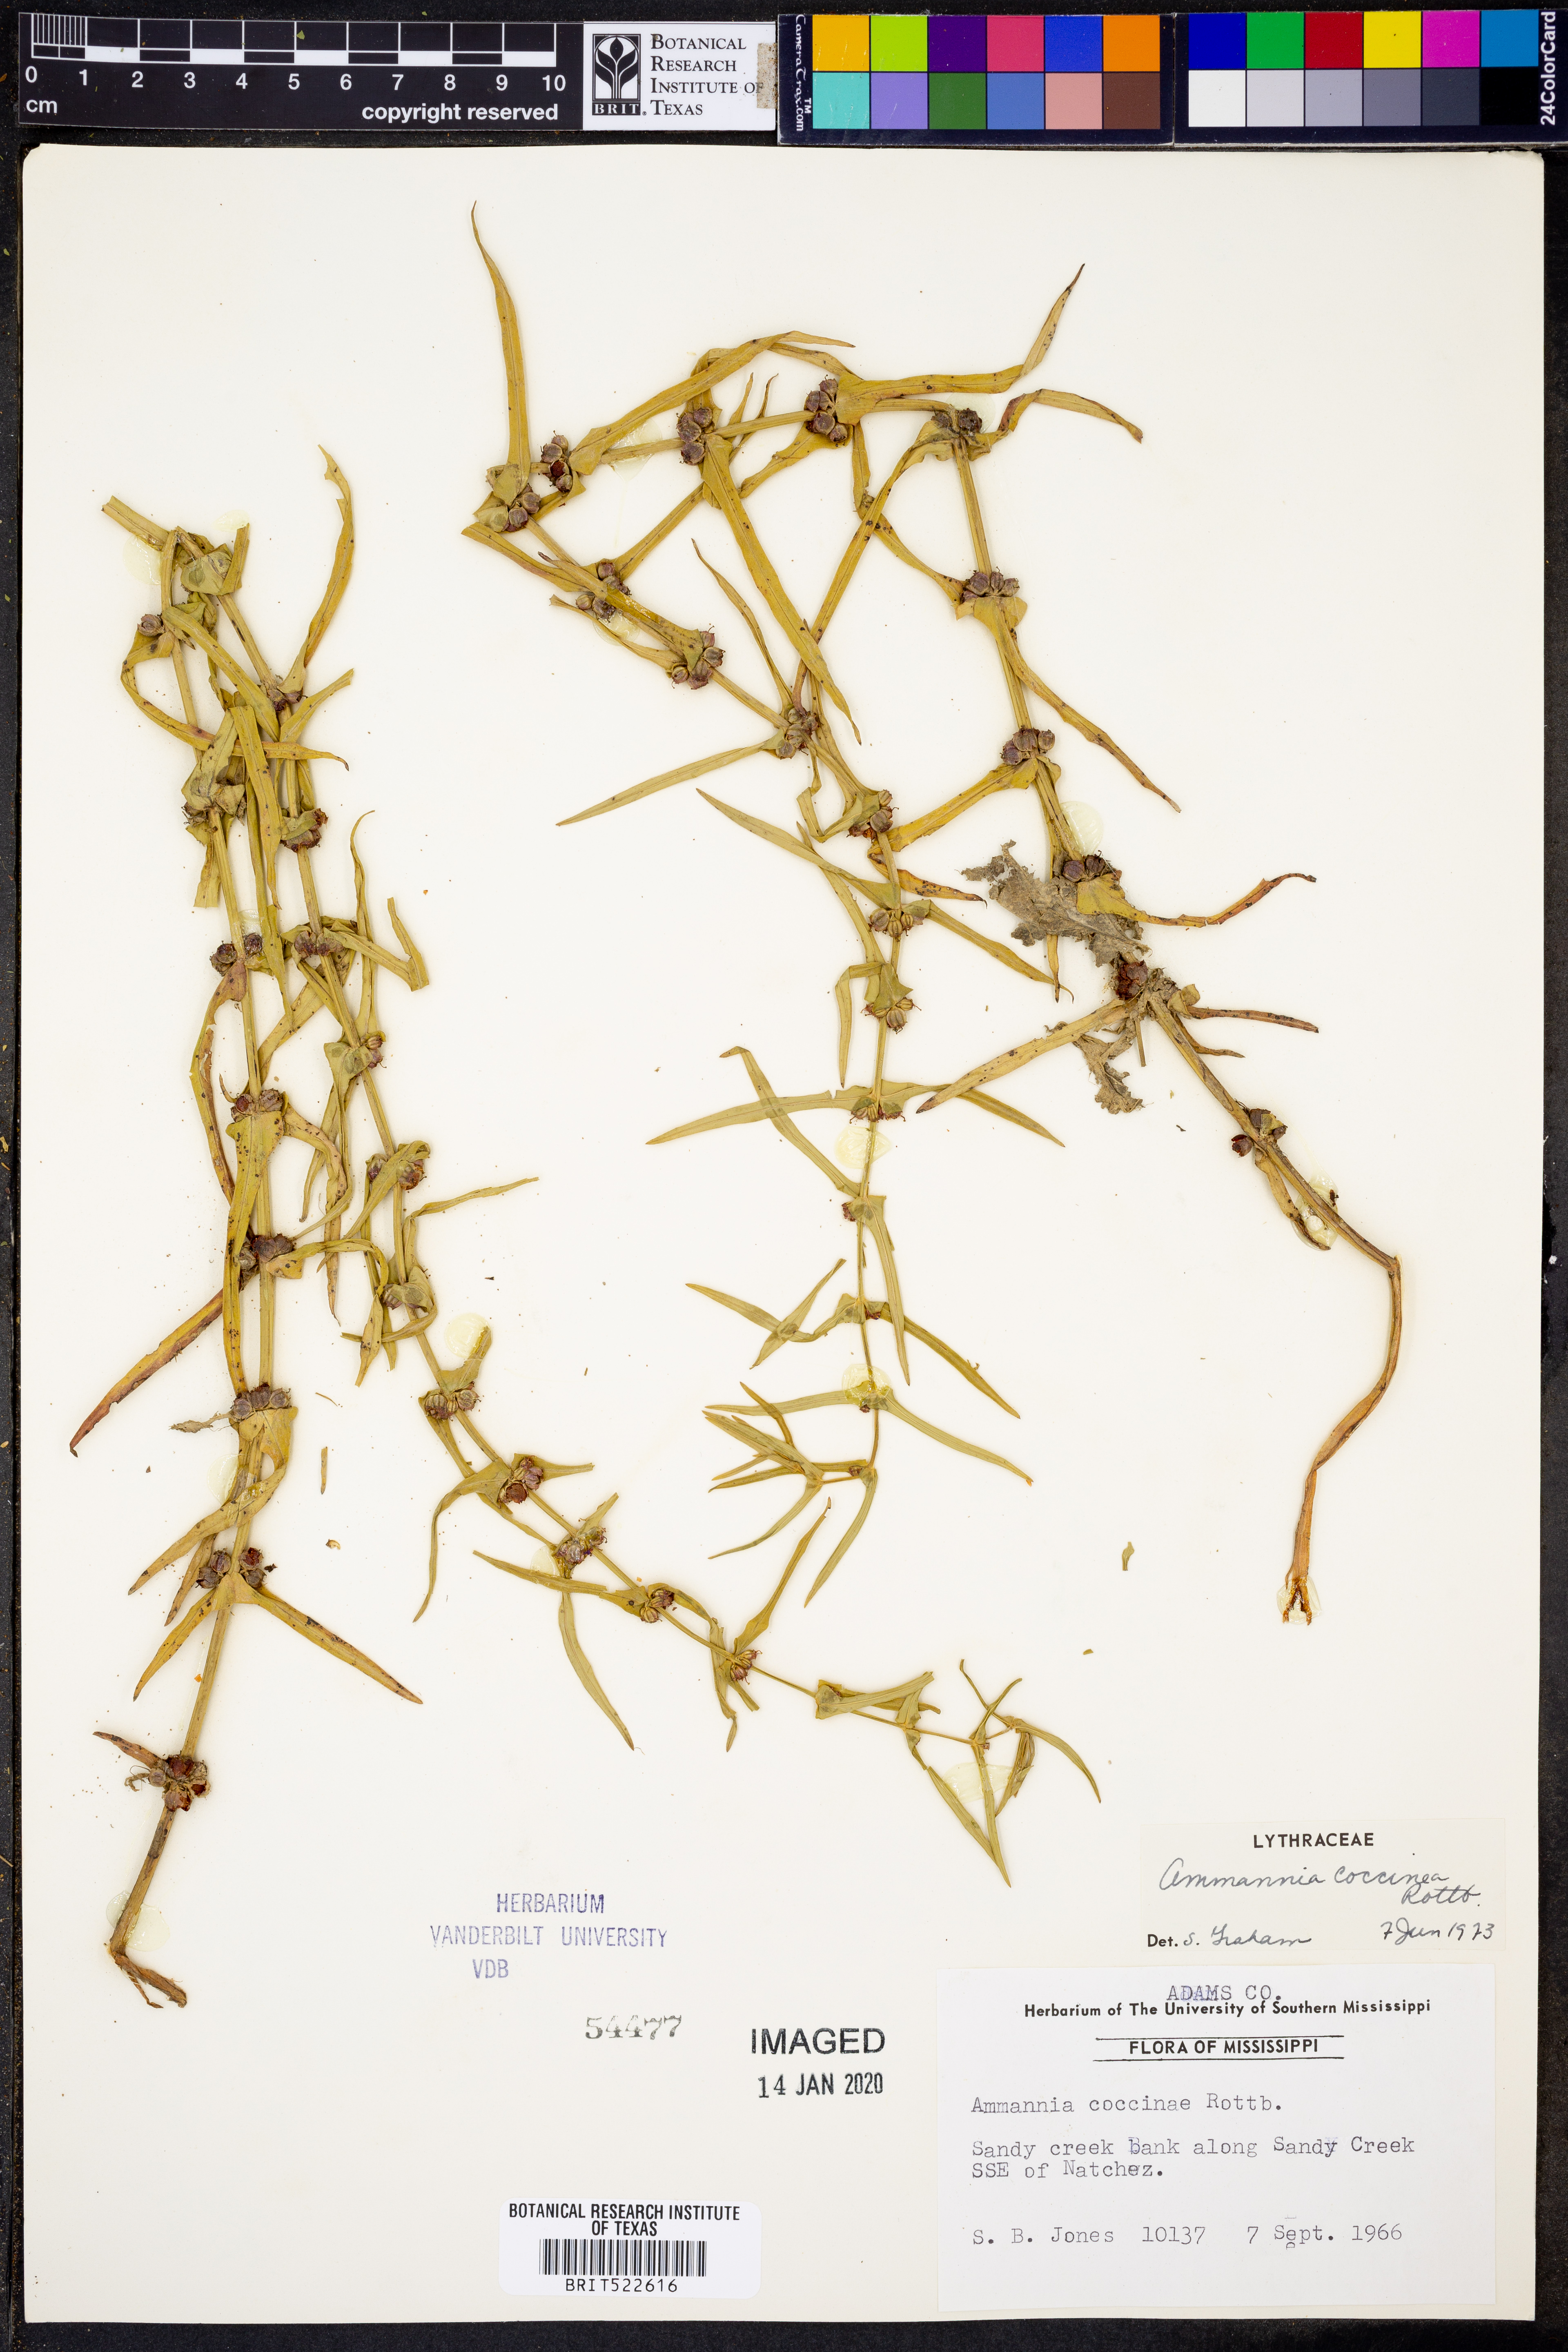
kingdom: Plantae
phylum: Tracheophyta
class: Magnoliopsida
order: Myrtales
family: Lythraceae
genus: Ammannia
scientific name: Ammannia coccinea
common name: Valley redstem
